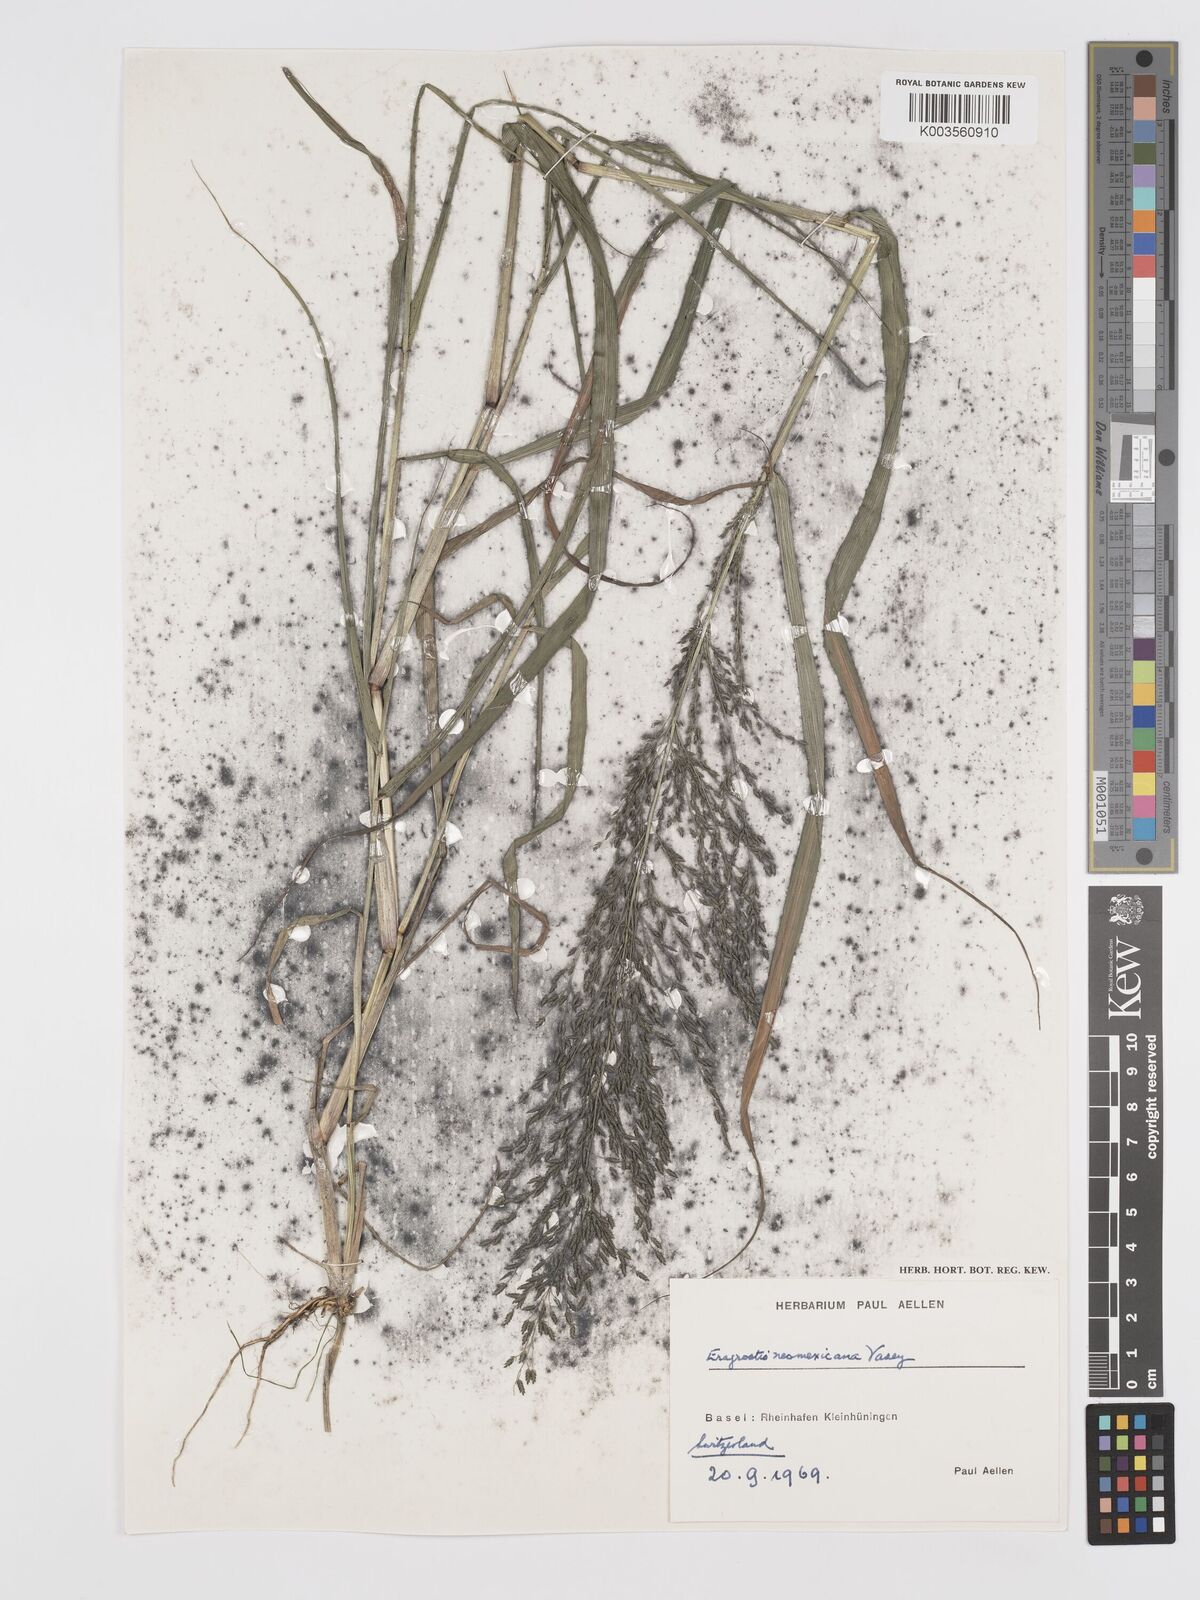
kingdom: Plantae
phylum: Tracheophyta
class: Liliopsida
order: Poales
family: Poaceae
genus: Eragrostis
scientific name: Eragrostis mexicana
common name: Mexican love grass
